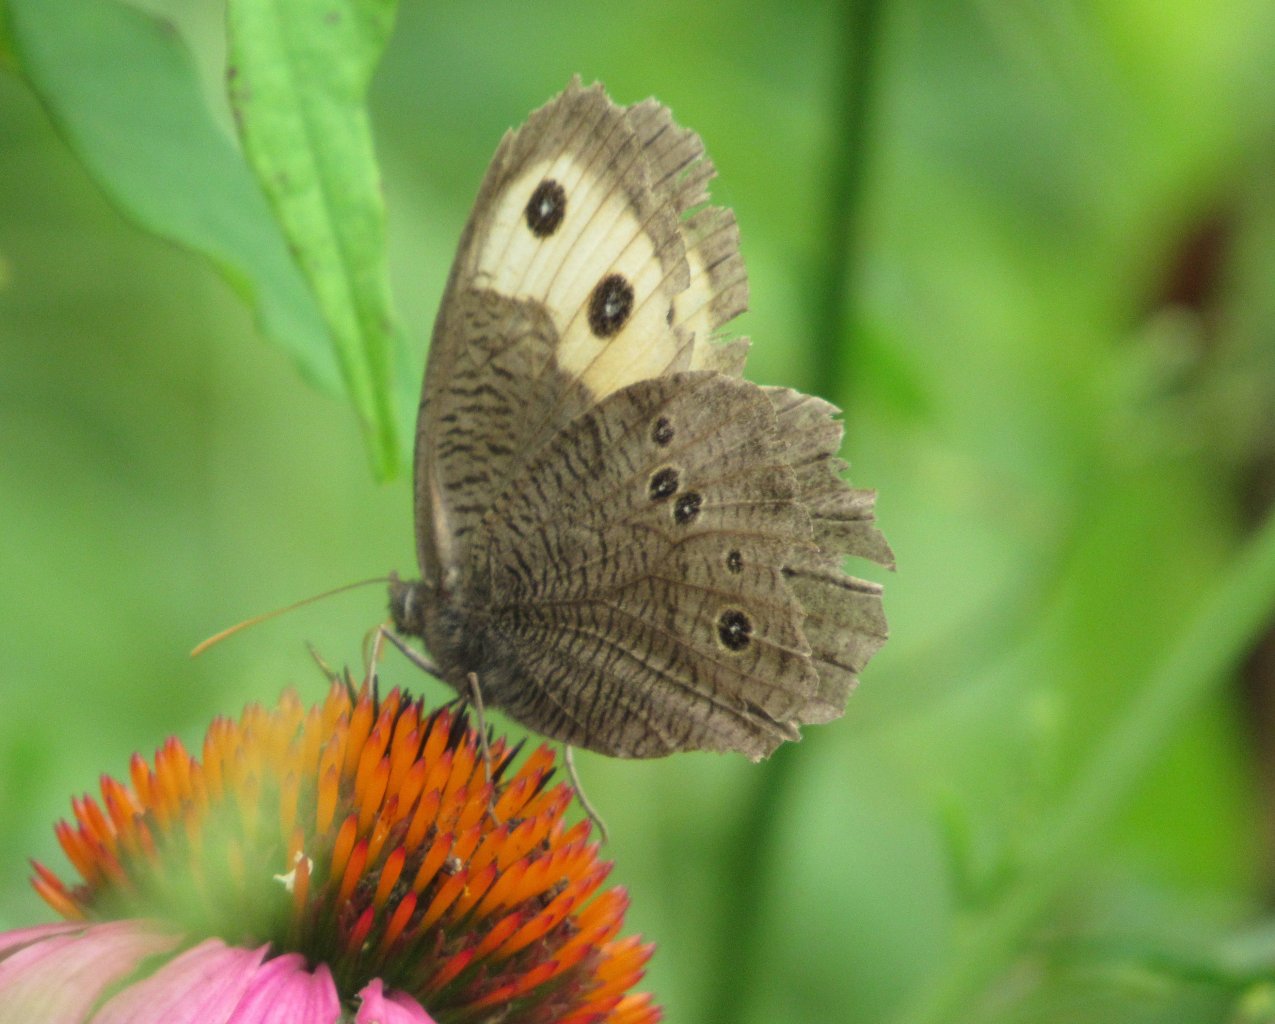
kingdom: Animalia
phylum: Arthropoda
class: Insecta
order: Lepidoptera
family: Nymphalidae
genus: Cercyonis
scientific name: Cercyonis pegala
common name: Common Wood-Nymph
